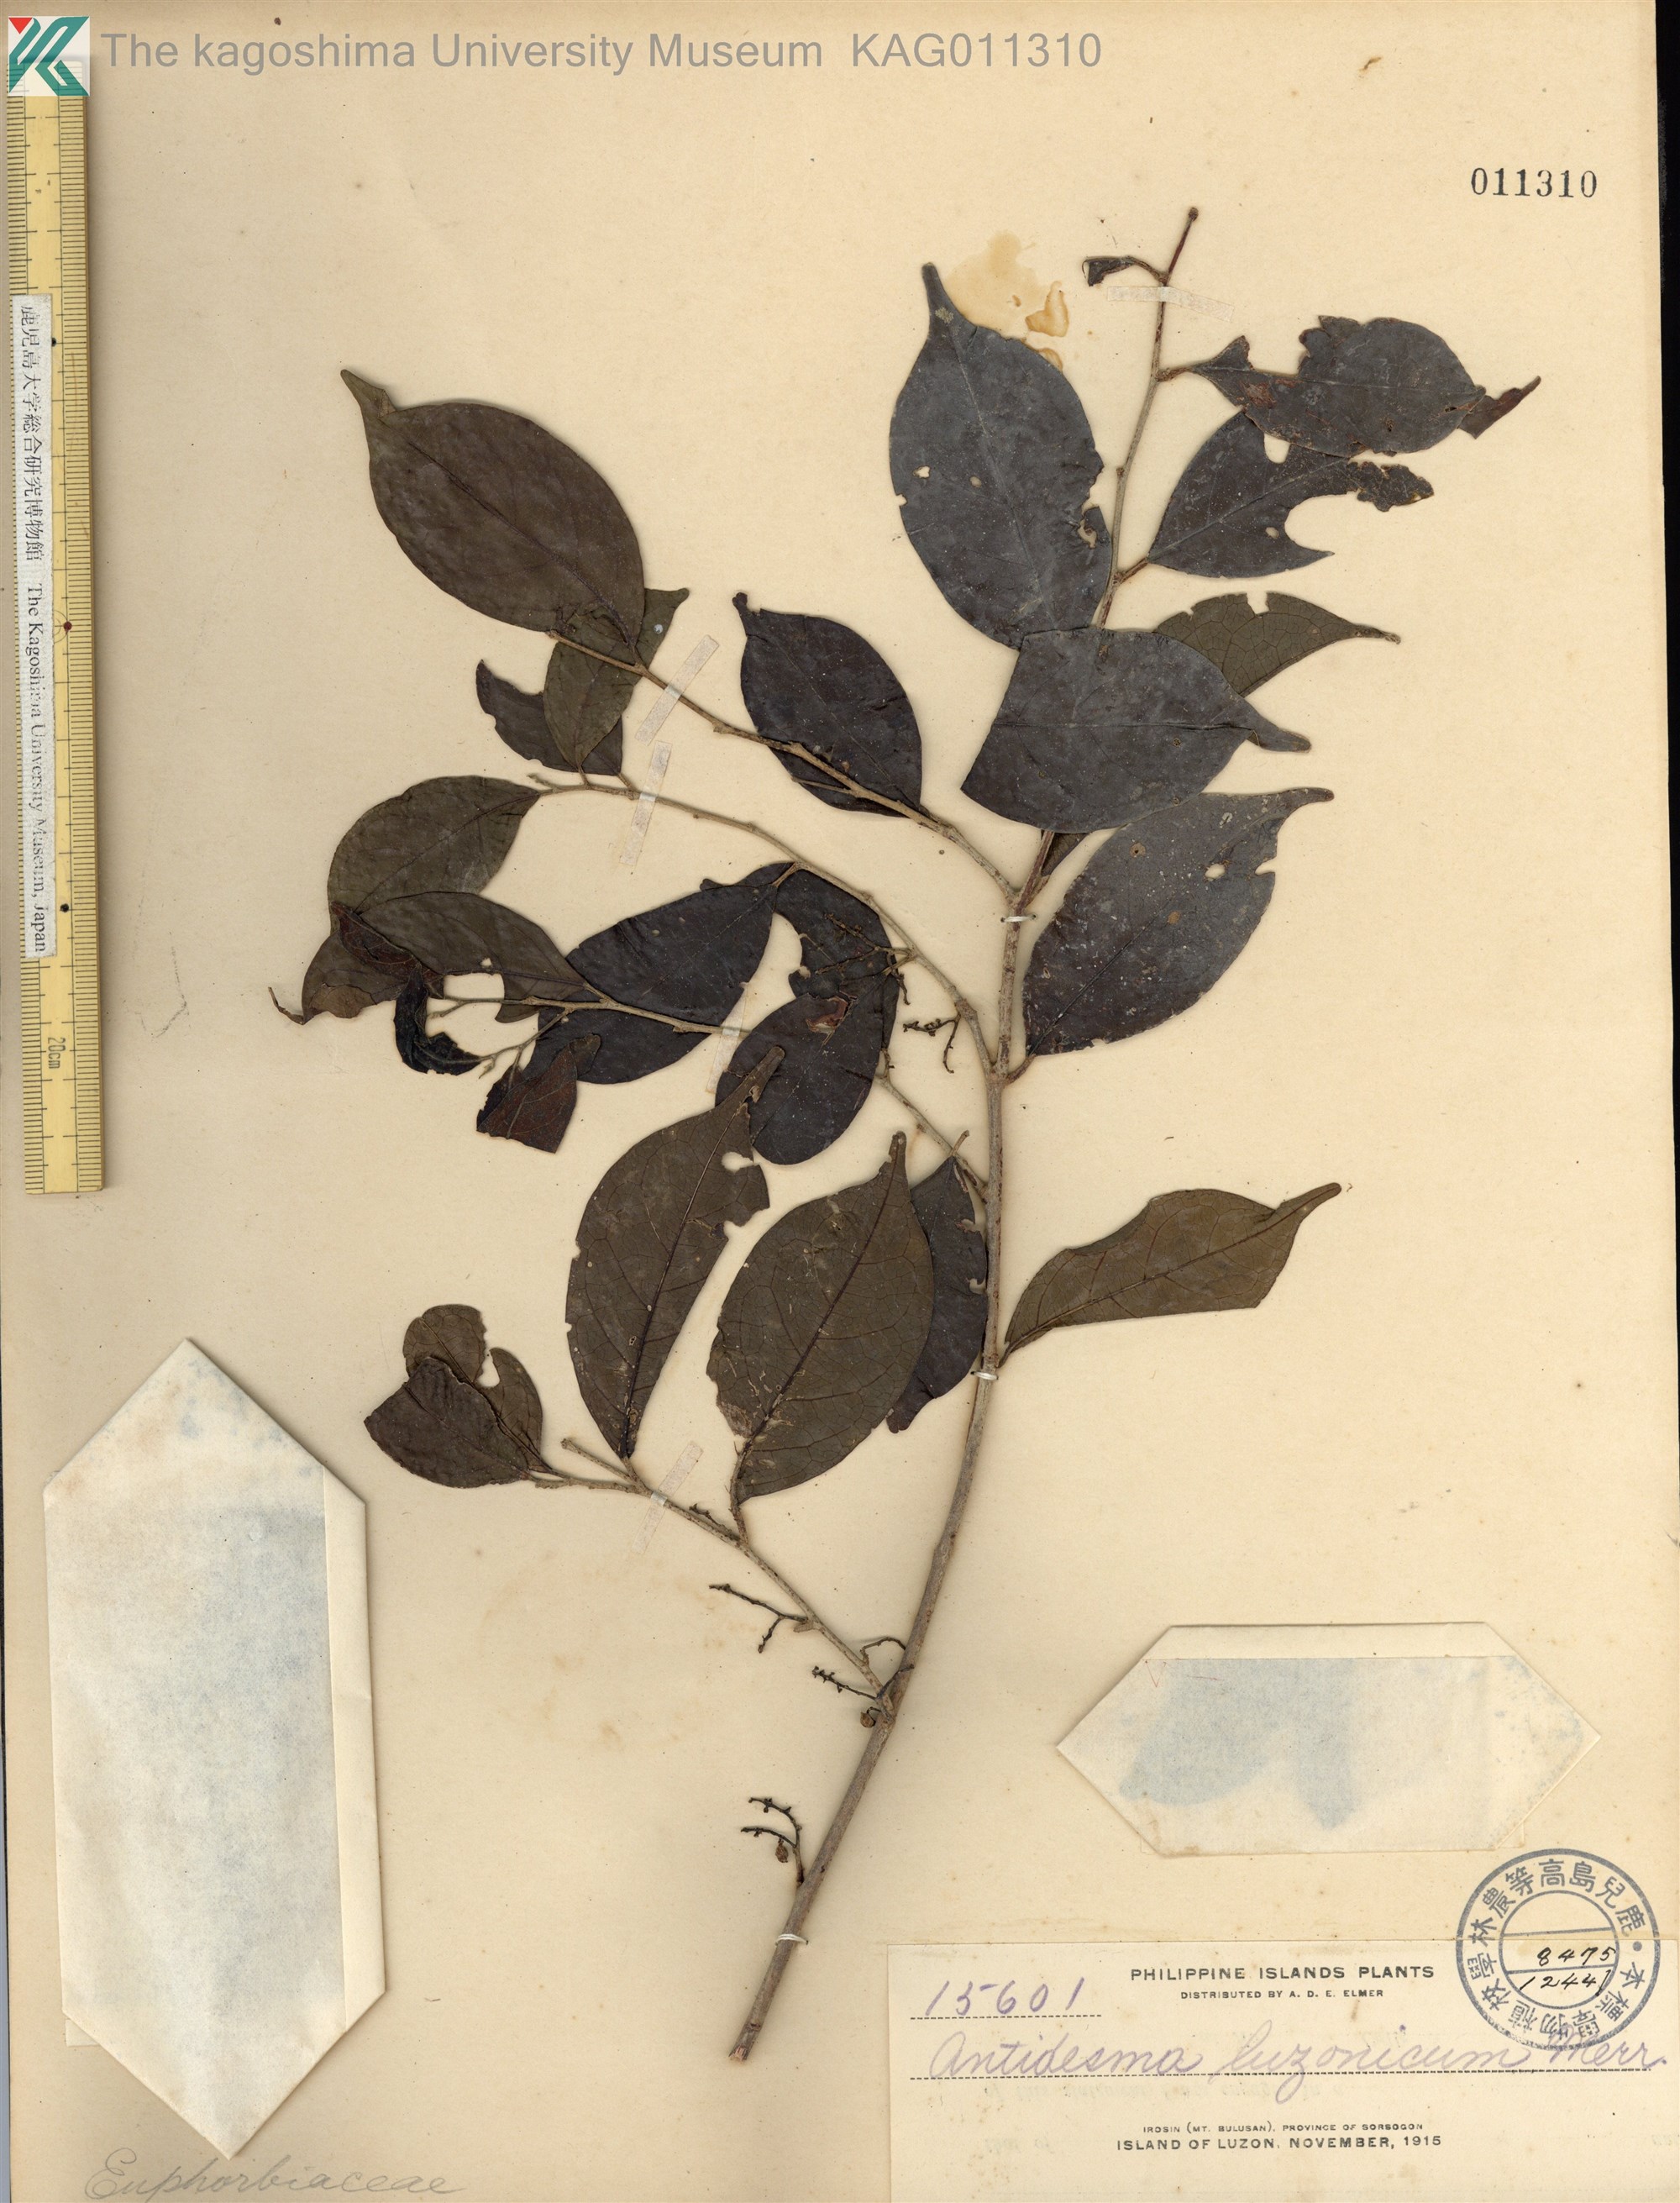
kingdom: Plantae
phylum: Tracheophyta
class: Magnoliopsida
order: Malpighiales
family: Phyllanthaceae
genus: Antidesma
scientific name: Antidesma digitaliforme
